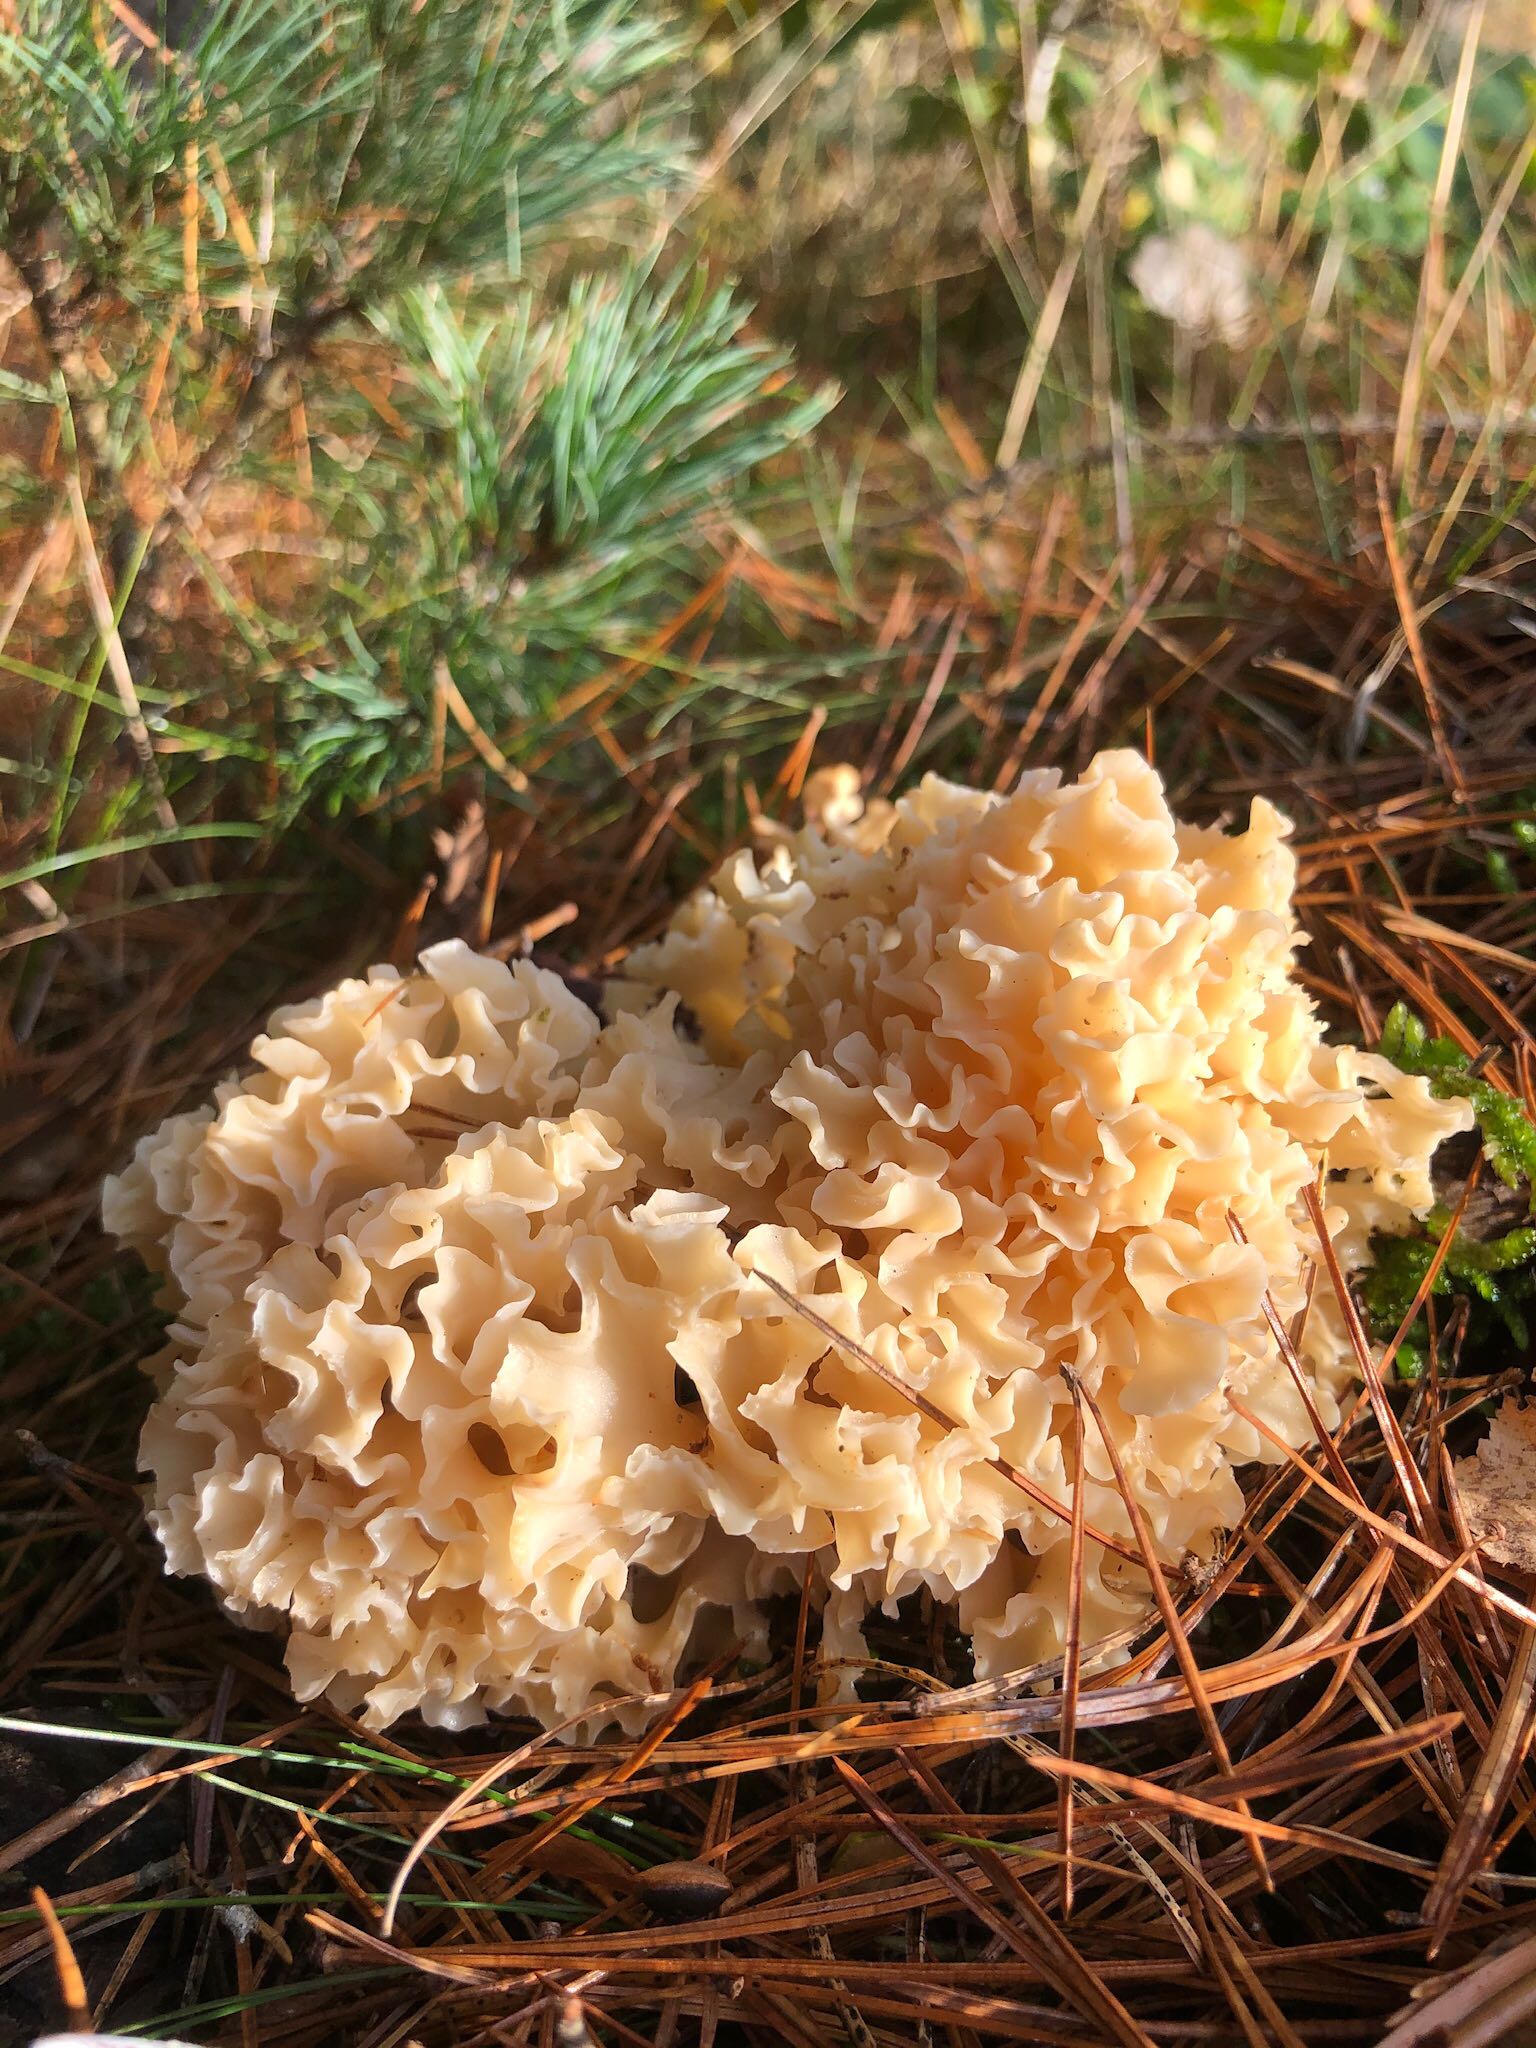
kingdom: Fungi
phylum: Basidiomycota
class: Agaricomycetes
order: Polyporales
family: Sparassidaceae
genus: Sparassis
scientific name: Sparassis crispa
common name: kruset blomkålssvamp
